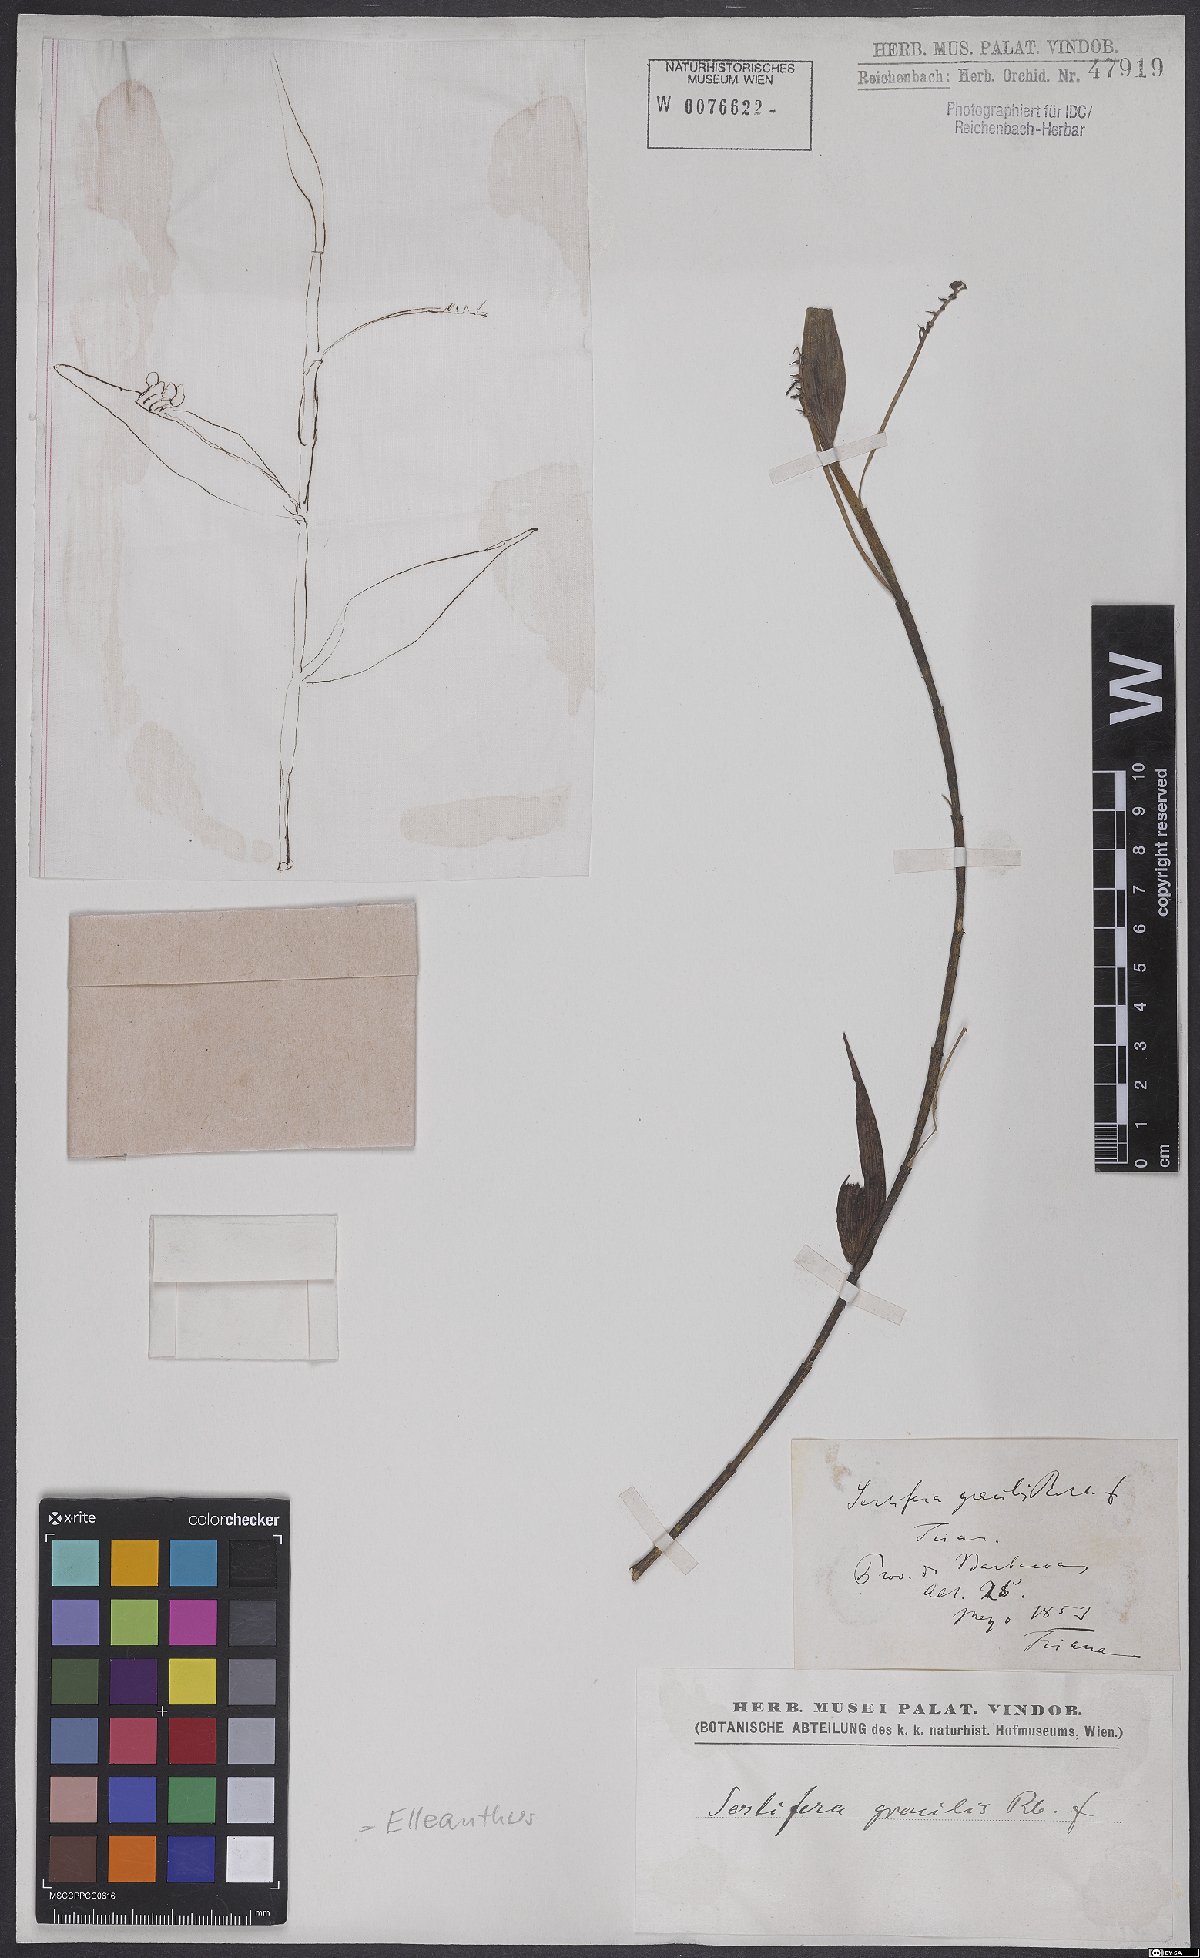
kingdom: Plantae
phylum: Tracheophyta
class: Liliopsida
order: Asparagales
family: Orchidaceae
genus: Sertifera
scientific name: Sertifera gracilis
